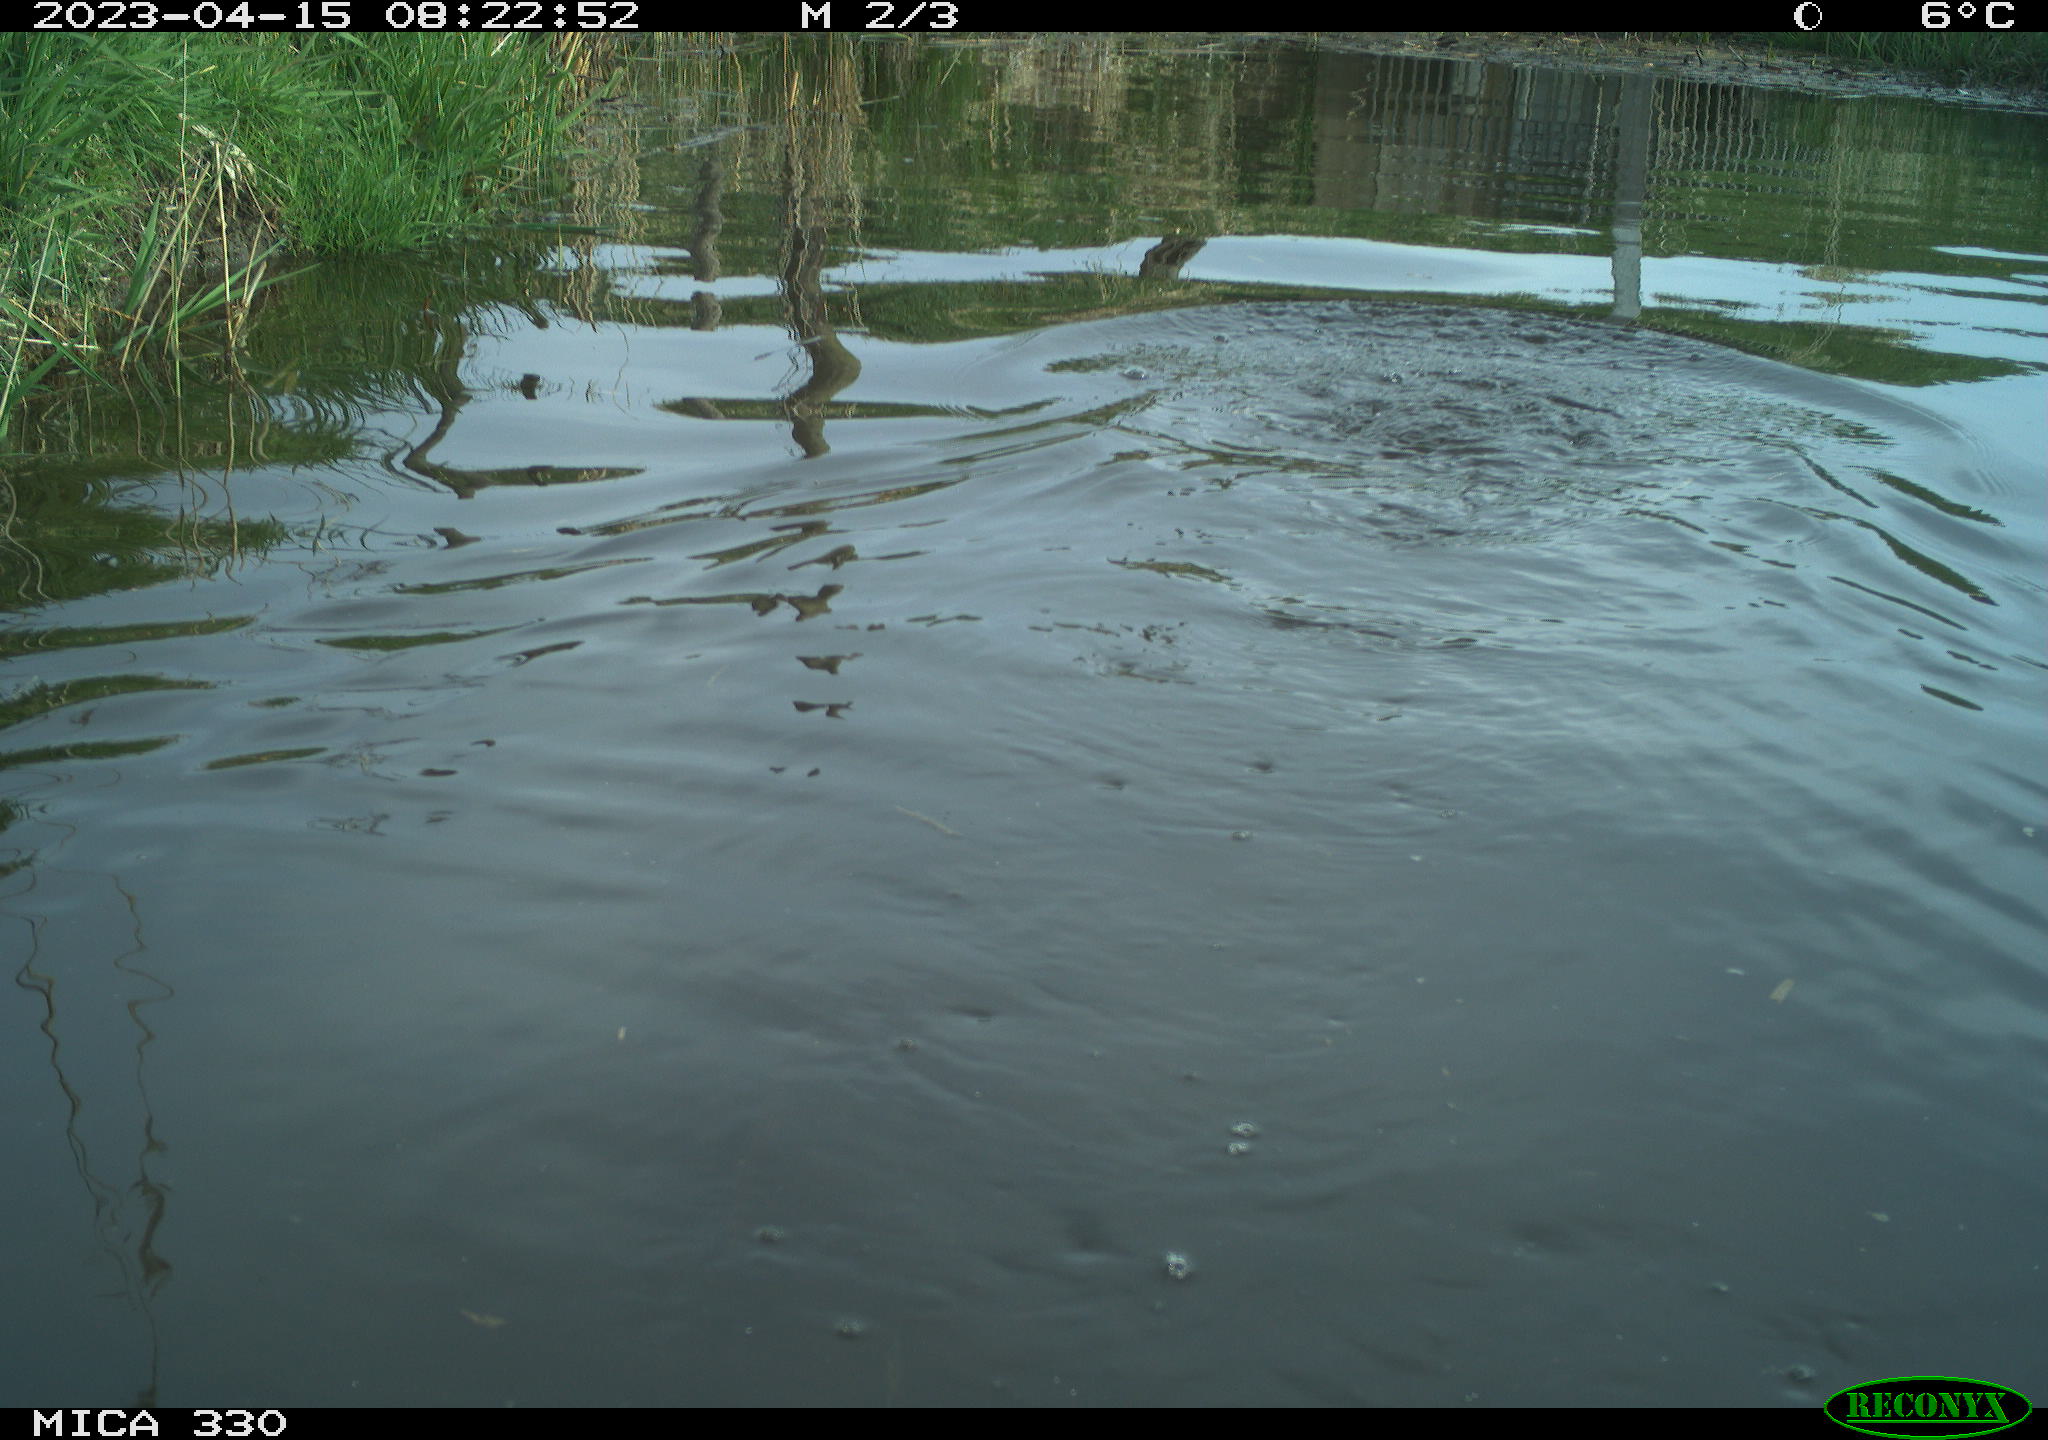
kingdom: Animalia
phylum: Chordata
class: Aves
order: Suliformes
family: Phalacrocoracidae
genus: Phalacrocorax
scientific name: Phalacrocorax carbo
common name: Great cormorant
